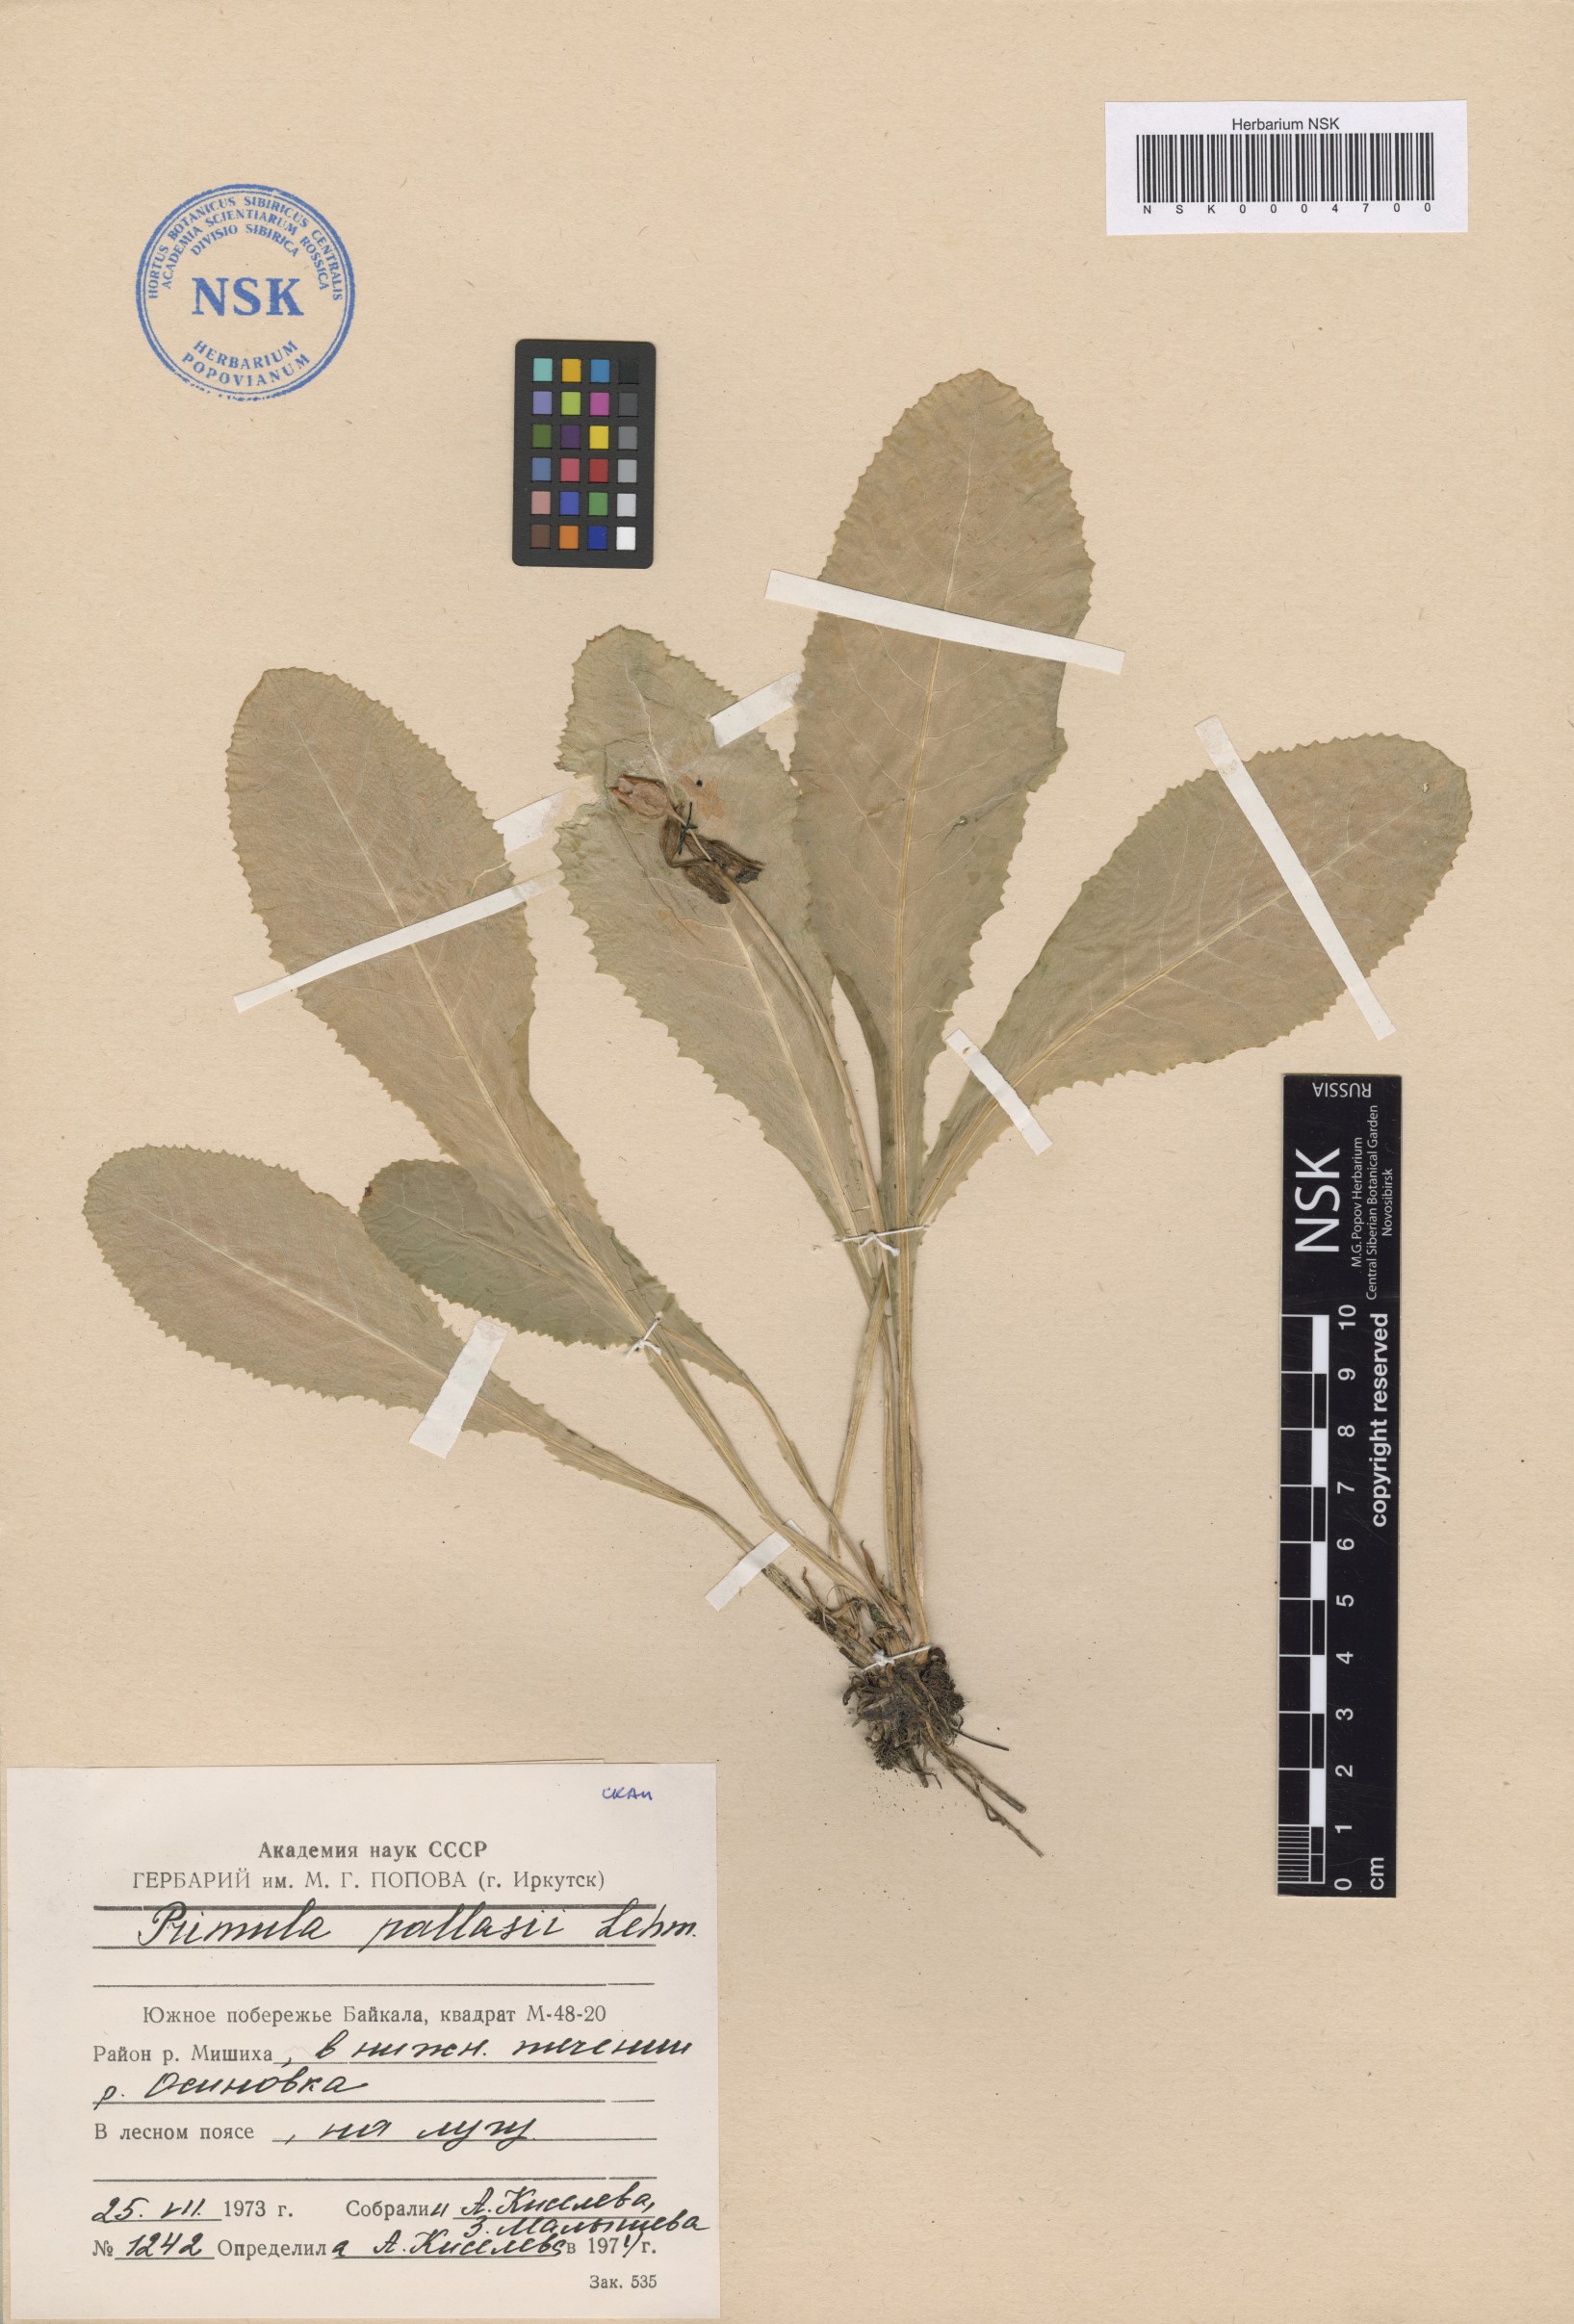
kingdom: Plantae
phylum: Tracheophyta
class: Magnoliopsida
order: Ericales
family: Primulaceae
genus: Primula
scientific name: Primula elatior
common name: Oxlip
